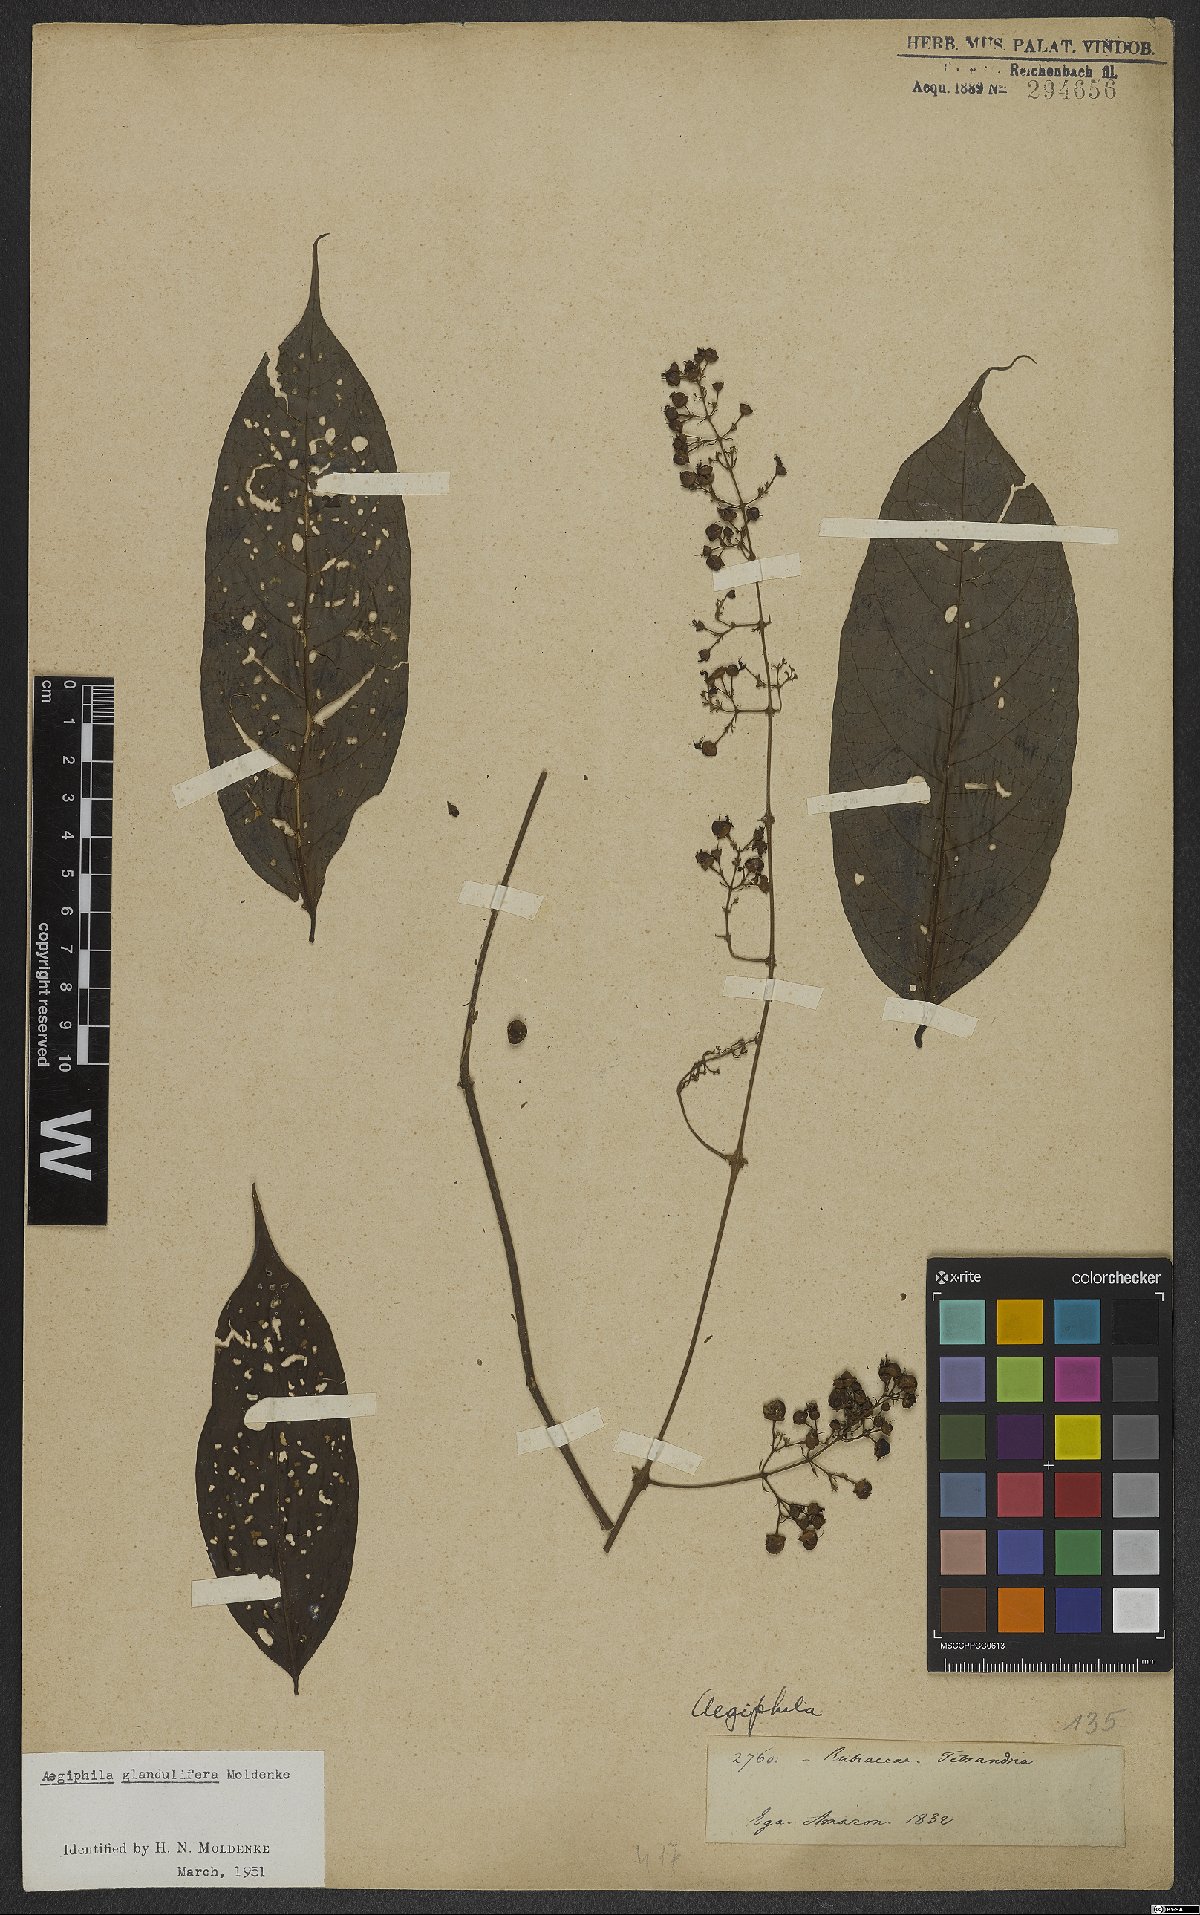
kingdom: Plantae
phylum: Tracheophyta
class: Magnoliopsida
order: Lamiales
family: Lamiaceae
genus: Aegiphila
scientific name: Aegiphila panamensis
